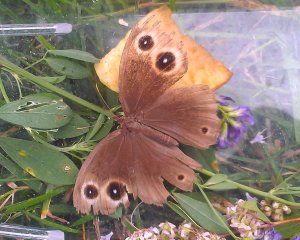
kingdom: Animalia
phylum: Arthropoda
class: Insecta
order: Lepidoptera
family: Nymphalidae
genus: Cercyonis
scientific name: Cercyonis pegala
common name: Common Wood-Nymph
